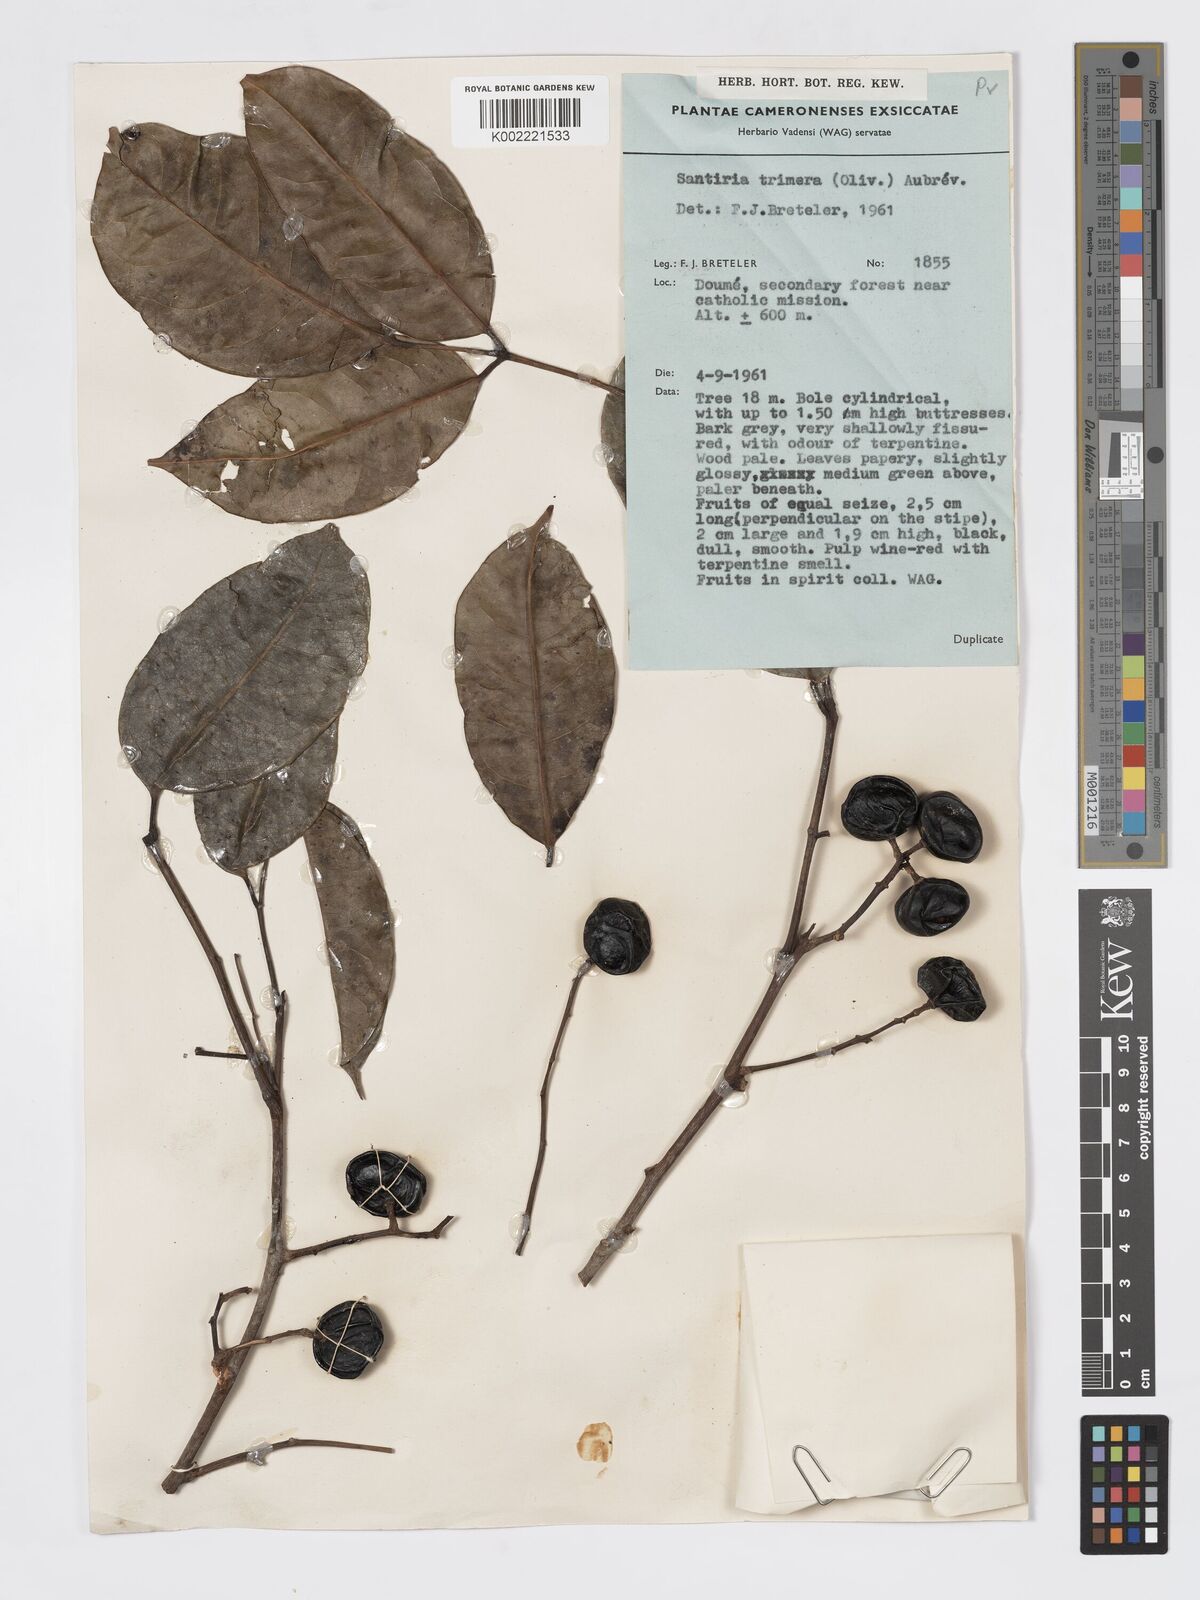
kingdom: Plantae
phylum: Tracheophyta
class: Magnoliopsida
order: Sapindales
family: Burseraceae
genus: Pachylobus
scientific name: Pachylobus trimerus
